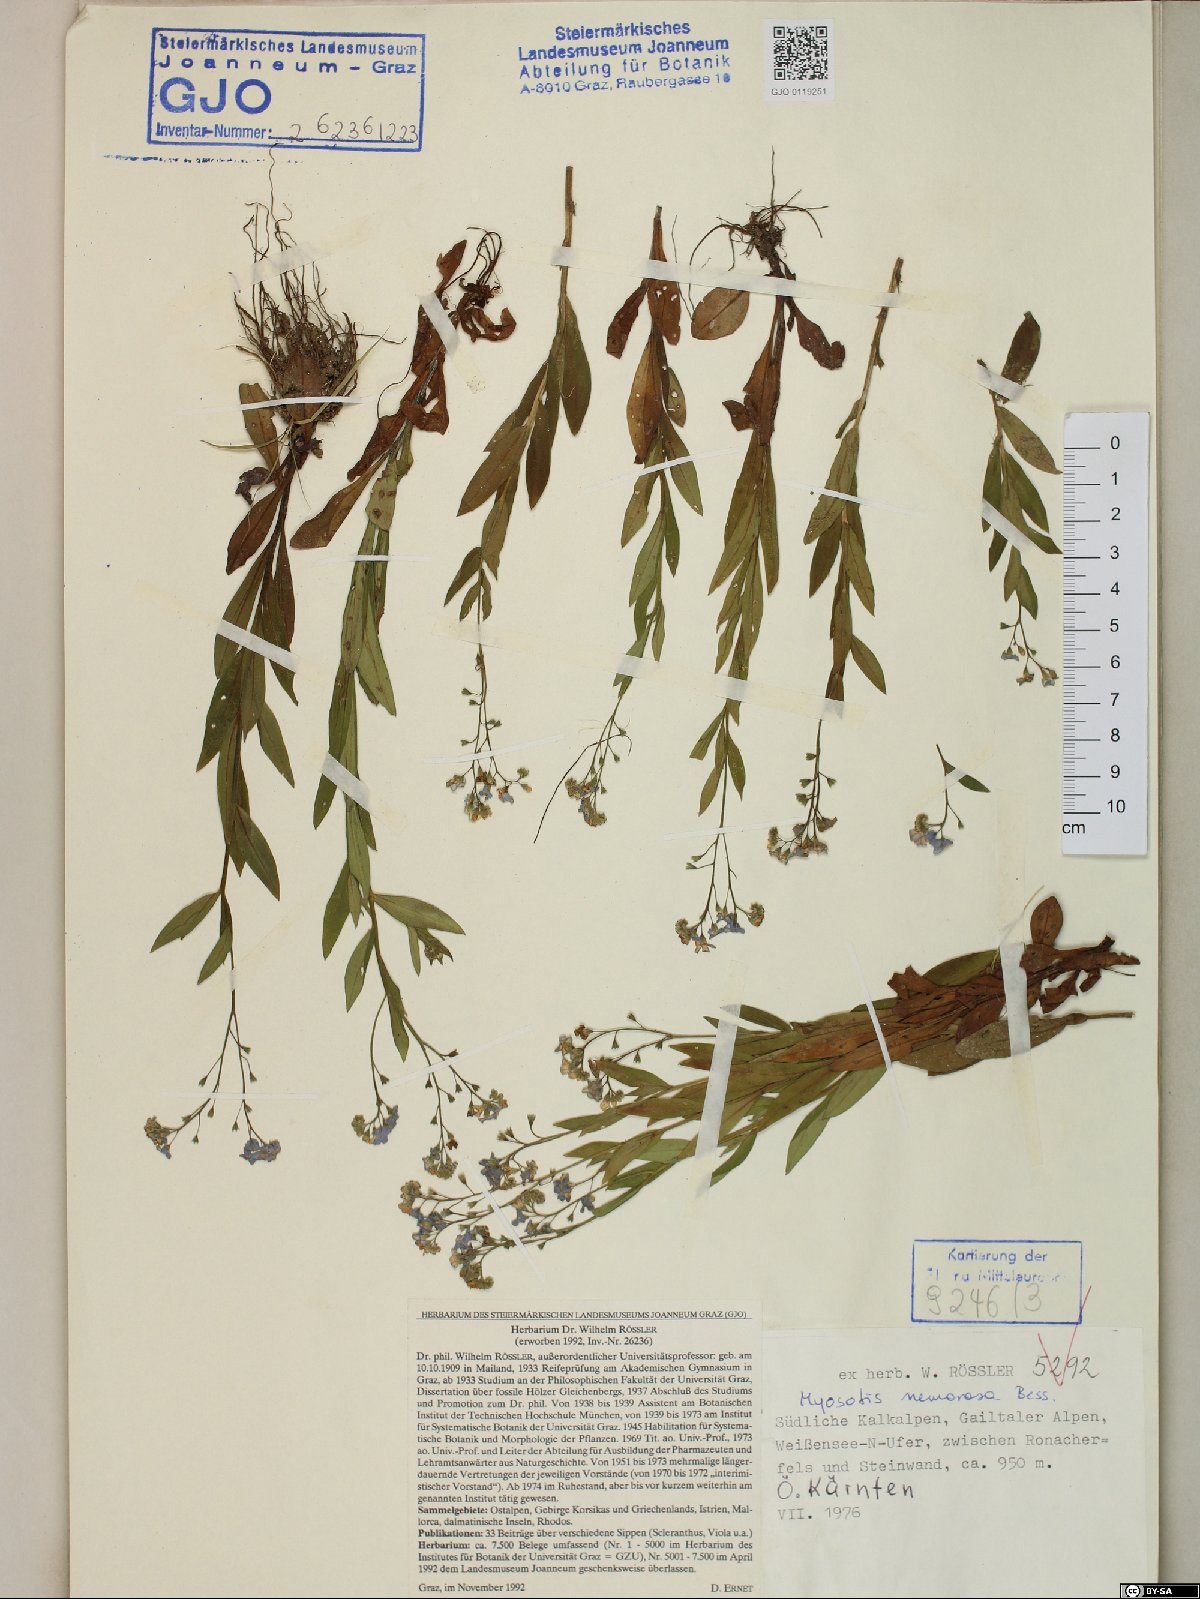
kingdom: Plantae
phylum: Tracheophyta
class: Magnoliopsida
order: Boraginales
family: Boraginaceae
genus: Myosotis
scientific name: Myosotis nemorosa
